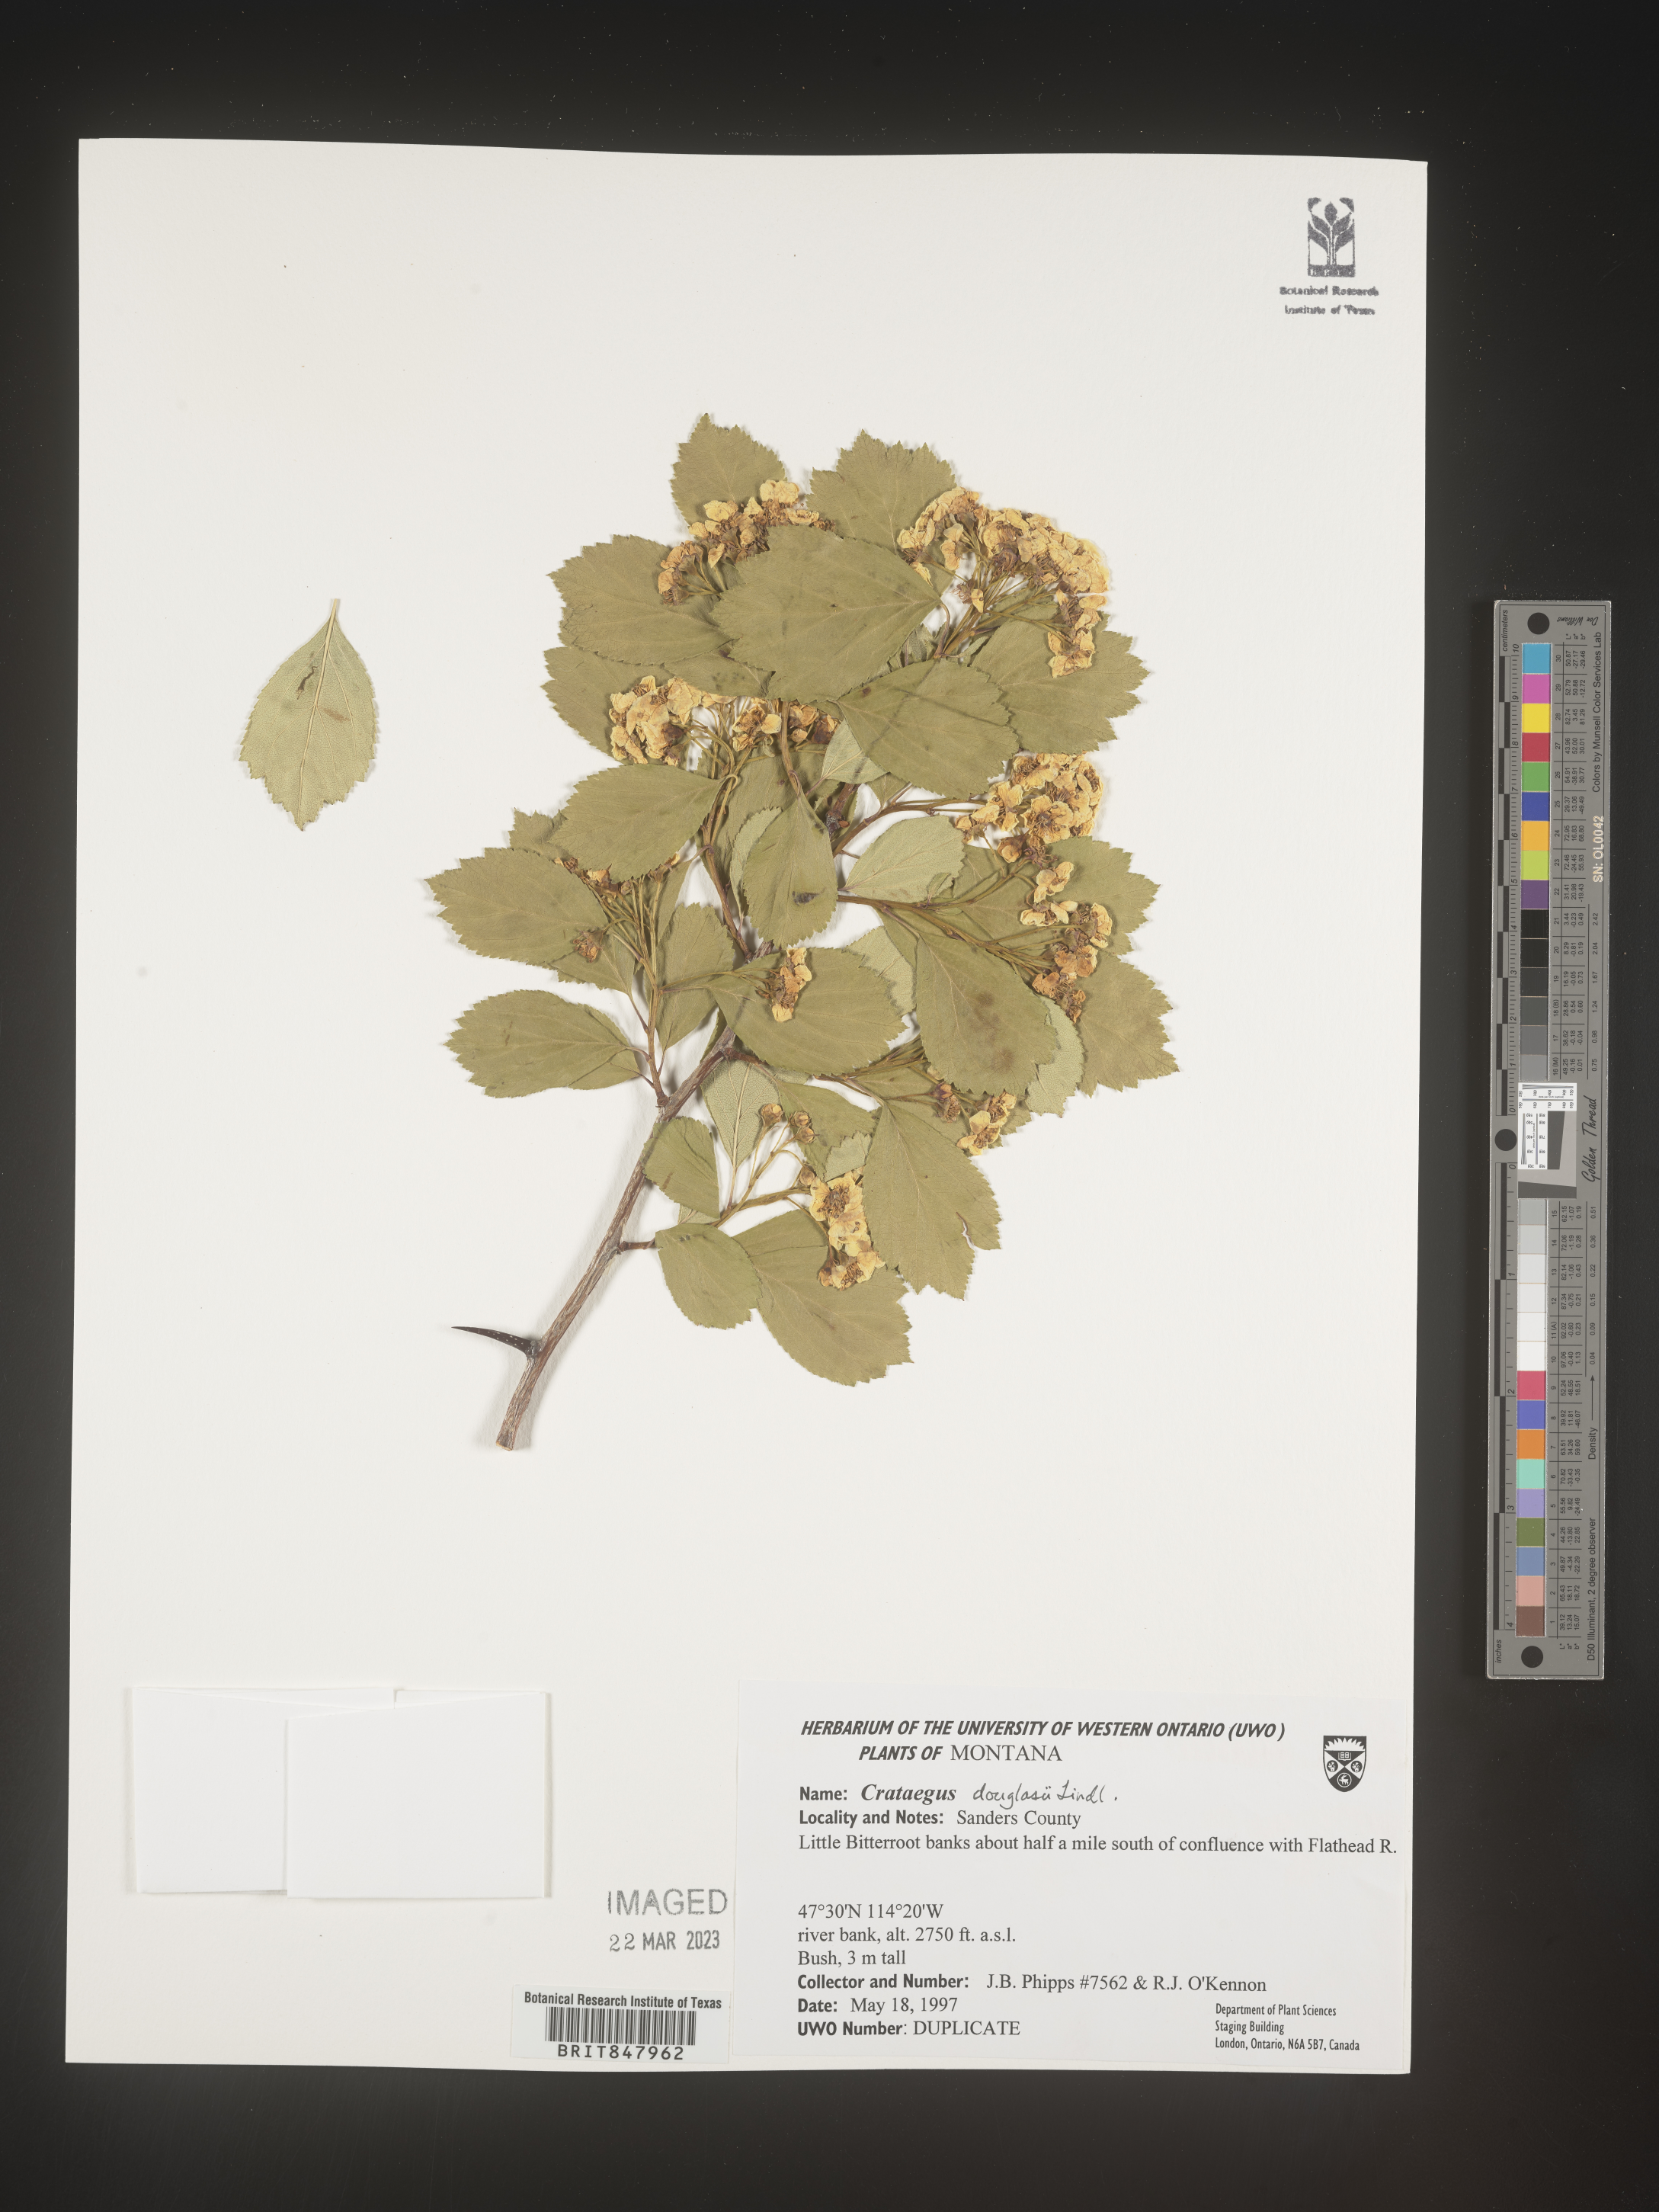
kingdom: Plantae
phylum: Tracheophyta
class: Magnoliopsida
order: Rosales
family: Rosaceae
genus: Crataegus
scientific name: Crataegus douglasii
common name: Black hawthorn
